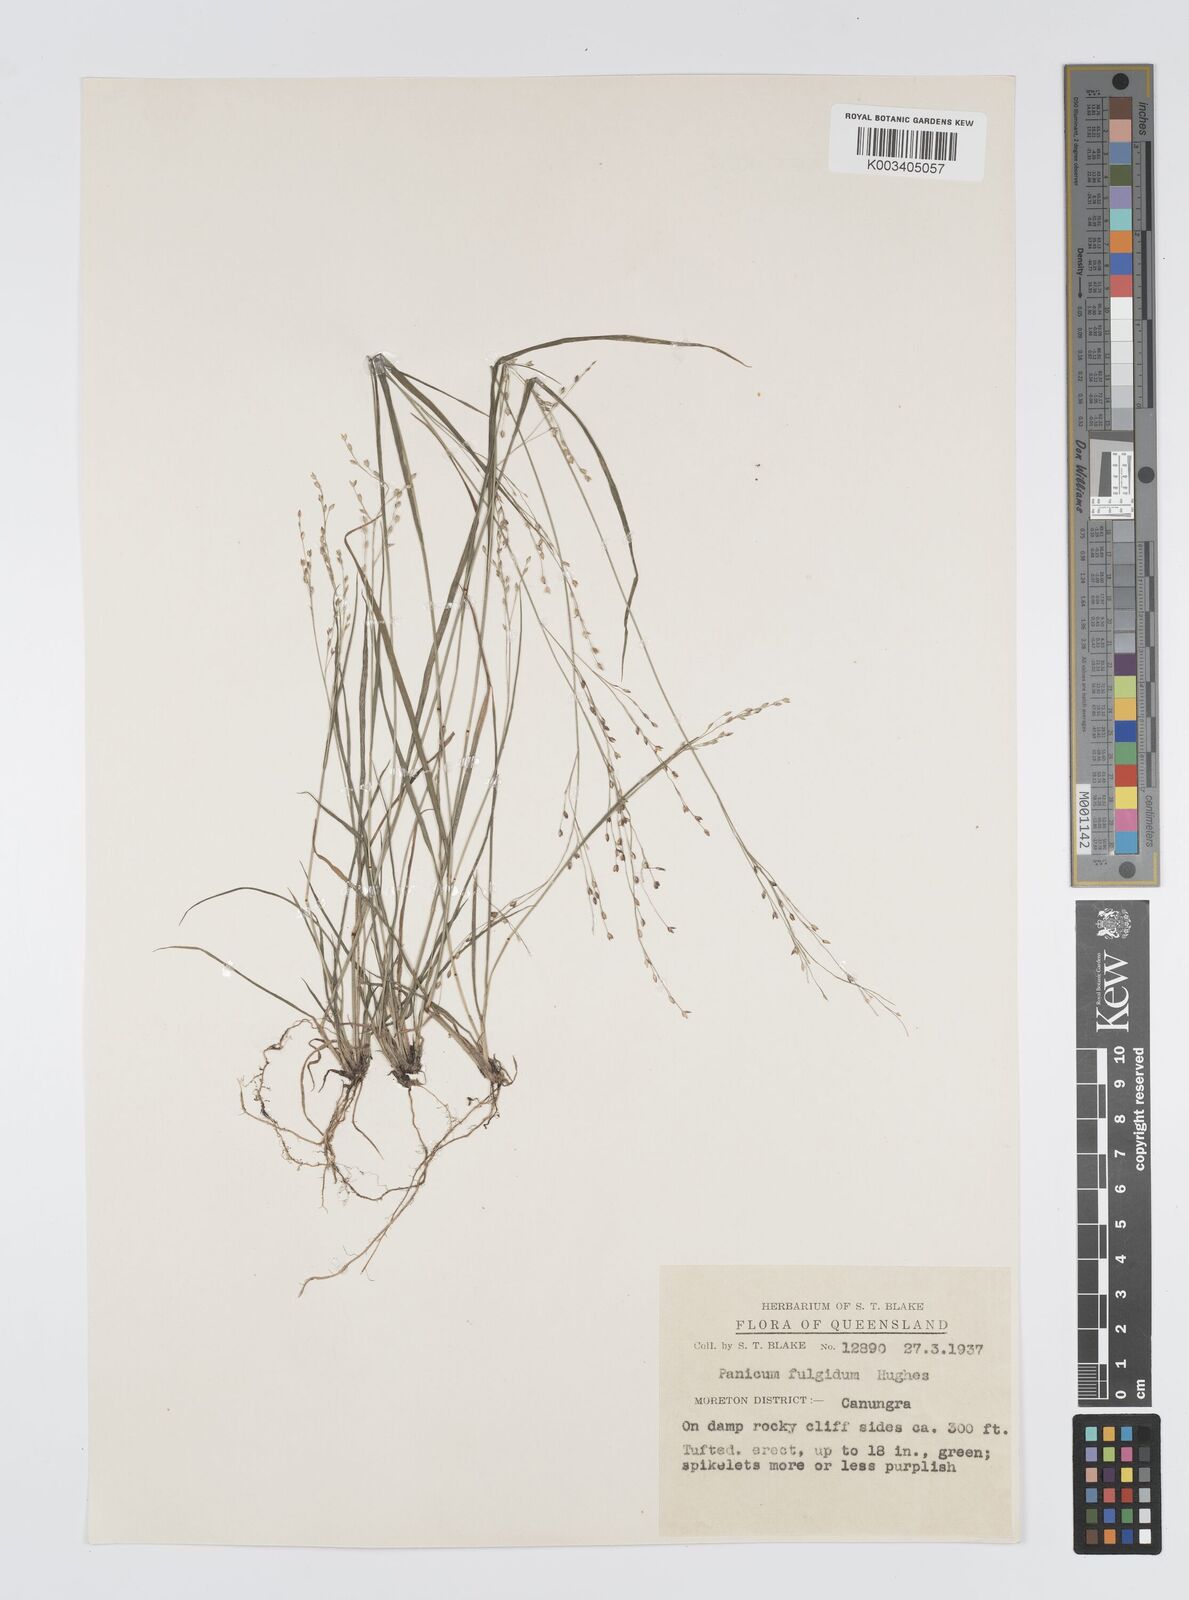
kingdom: Plantae
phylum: Tracheophyta
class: Liliopsida
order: Poales
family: Poaceae
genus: Panicum
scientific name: Panicum simile
